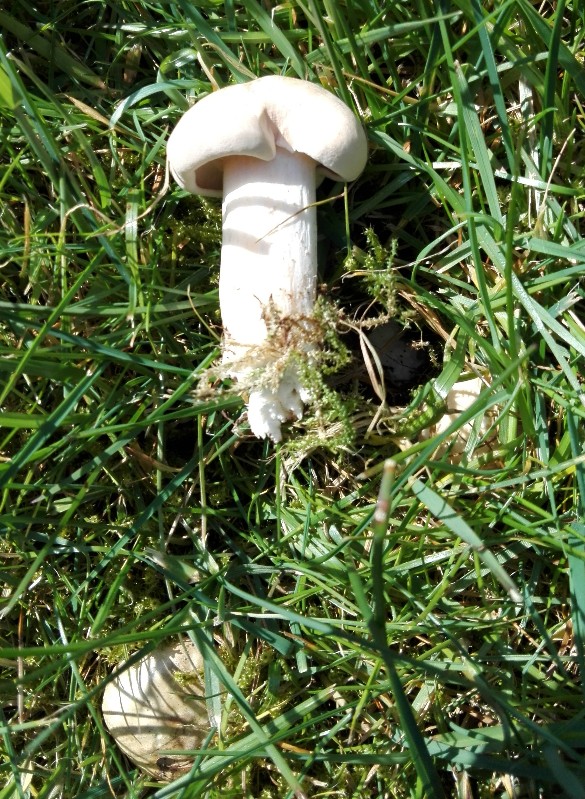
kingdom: Fungi
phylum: Basidiomycota
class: Agaricomycetes
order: Agaricales
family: Lyophyllaceae
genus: Calocybe
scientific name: Calocybe gambosa
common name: vårmusseron
